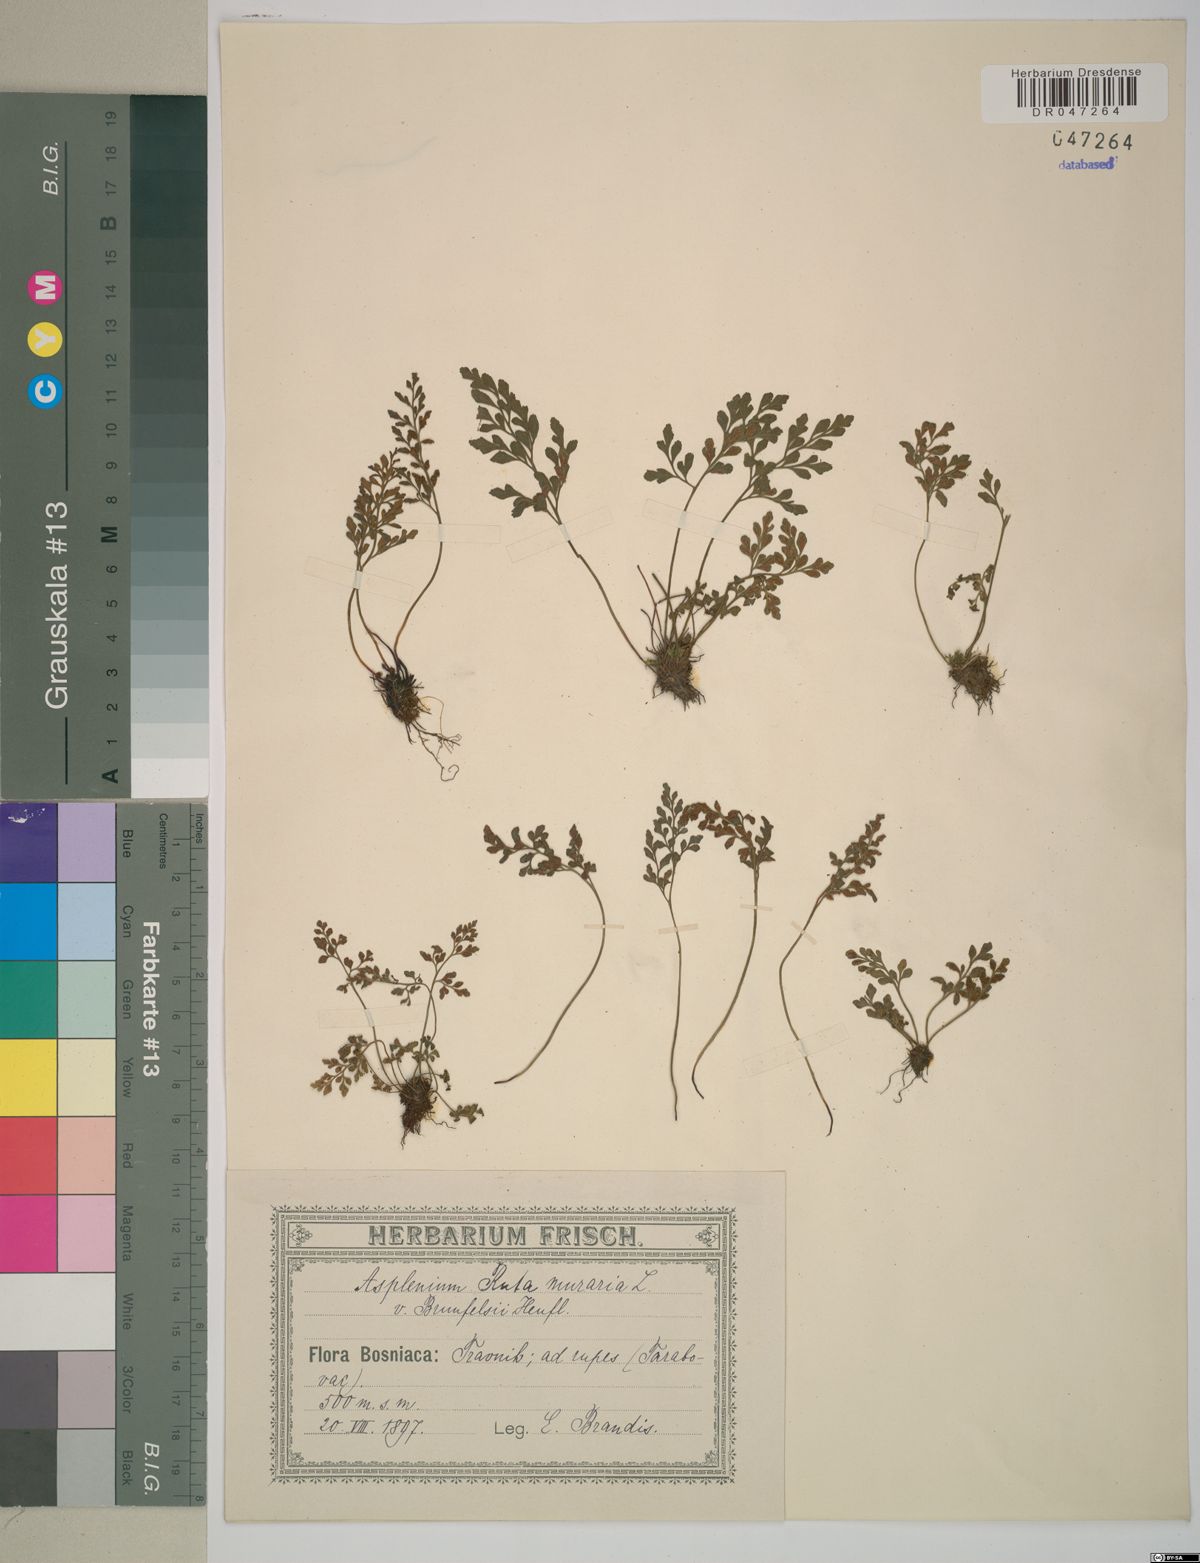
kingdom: Plantae
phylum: Tracheophyta
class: Polypodiopsida
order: Polypodiales
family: Aspleniaceae
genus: Asplenium
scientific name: Asplenium ruta-muraria
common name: Wall-rue
